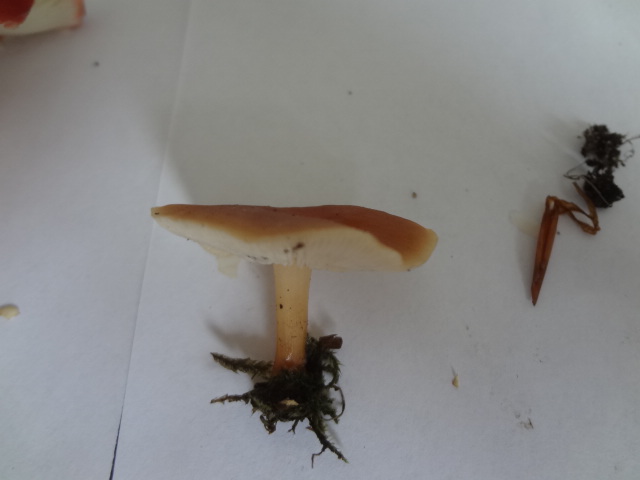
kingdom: Fungi
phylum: Basidiomycota
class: Agaricomycetes
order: Agaricales
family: Omphalotaceae
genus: Gymnopus
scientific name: Gymnopus dryophilus
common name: løv-fladhat
